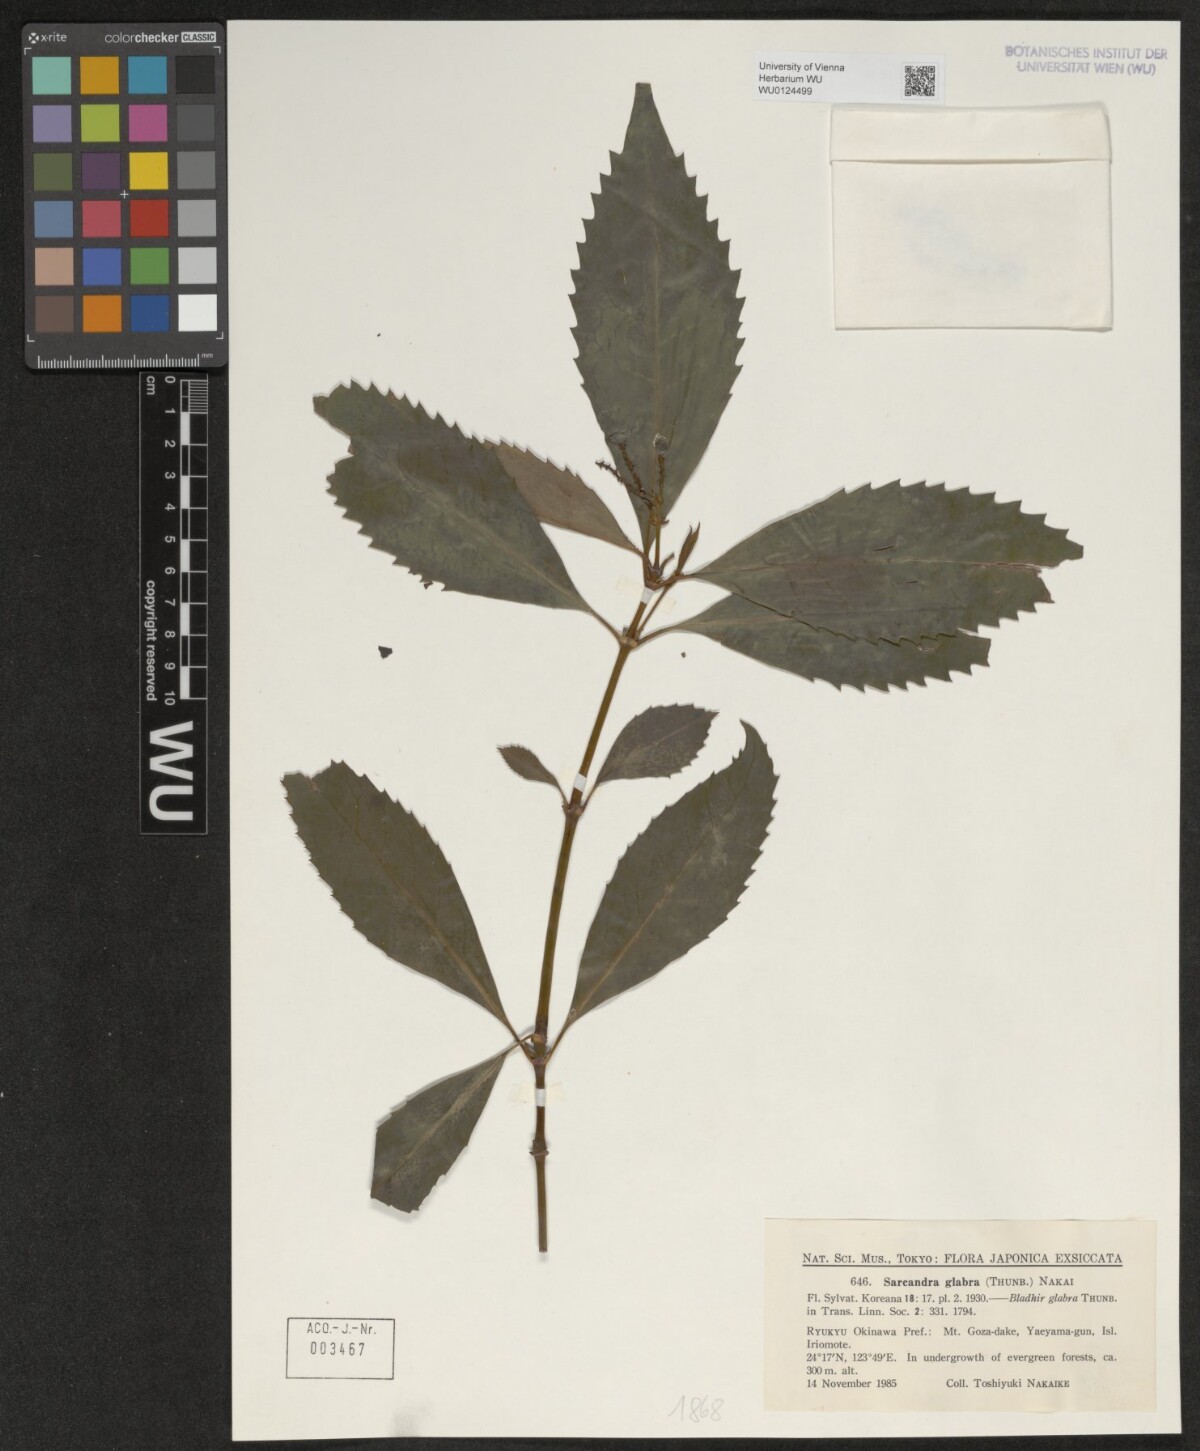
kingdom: Plantae
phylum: Tracheophyta
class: Magnoliopsida
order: Chloranthales
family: Chloranthaceae
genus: Sarcandra
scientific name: Sarcandra glabra
